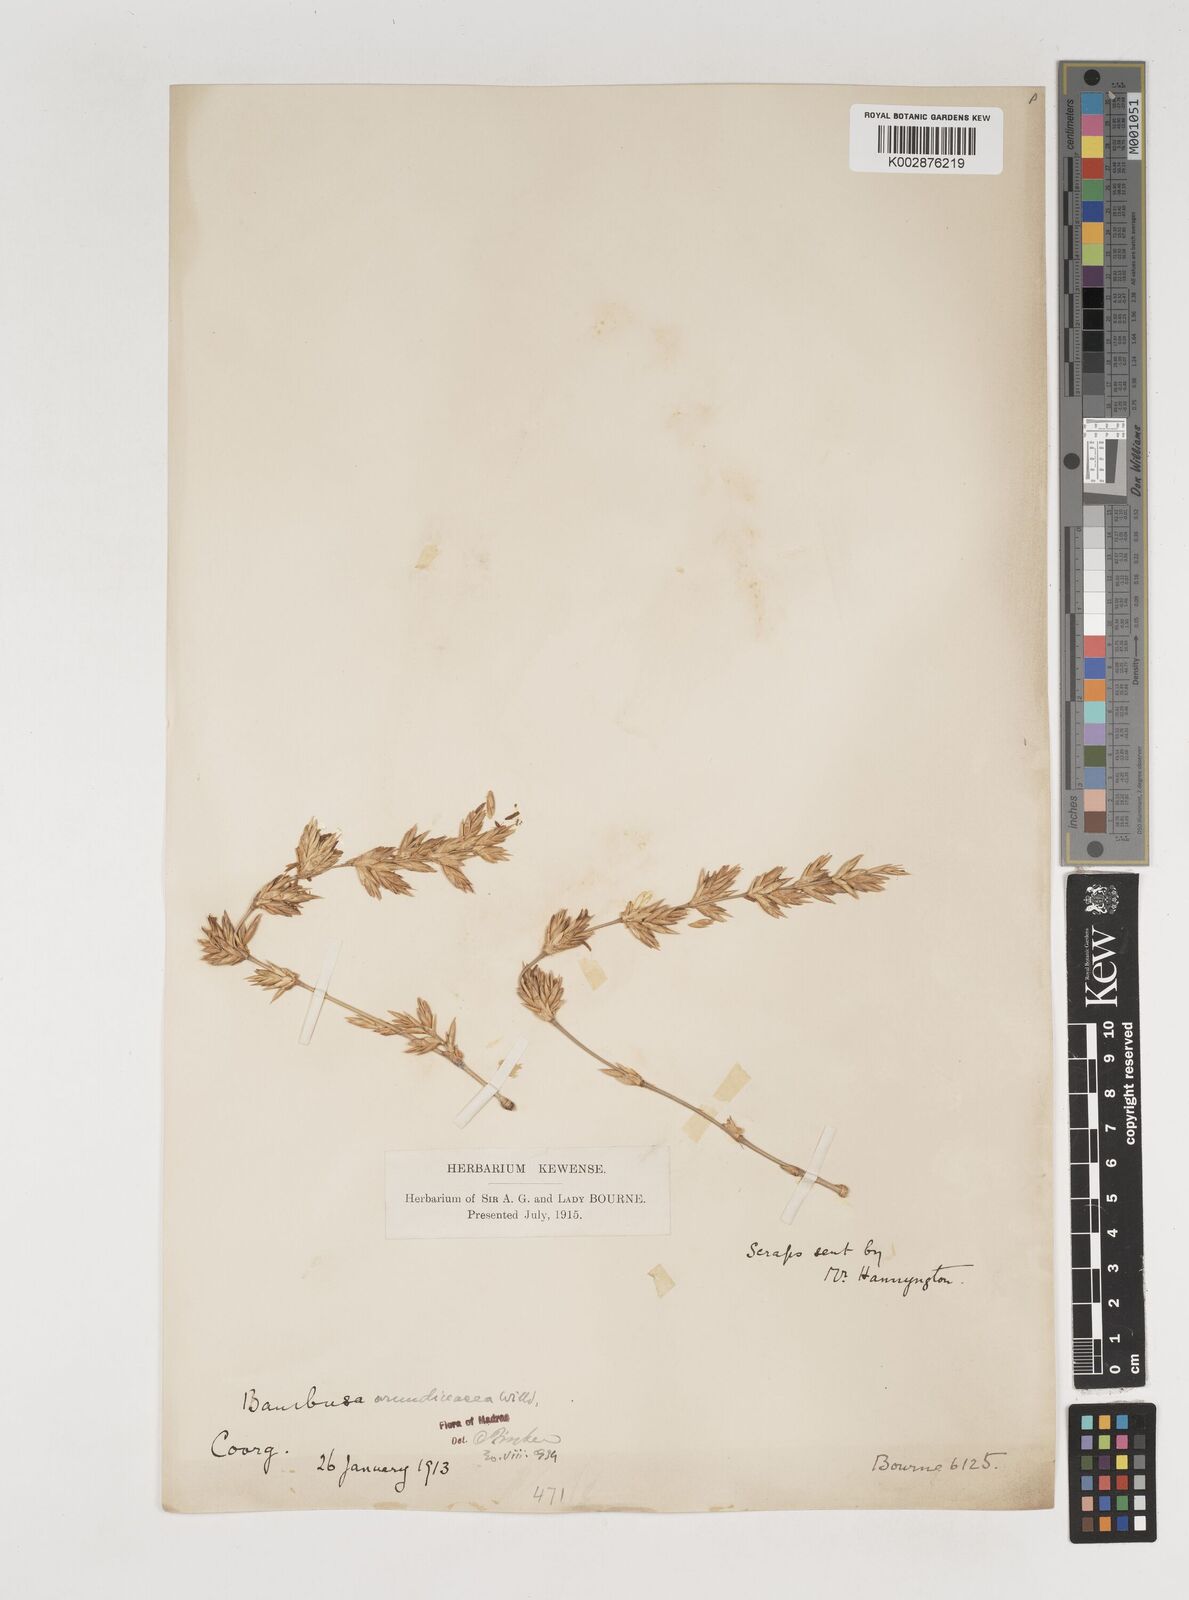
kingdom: Plantae
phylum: Tracheophyta
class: Liliopsida
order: Poales
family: Poaceae
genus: Bambusa
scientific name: Bambusa bambos
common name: Indian thorny bamboo
